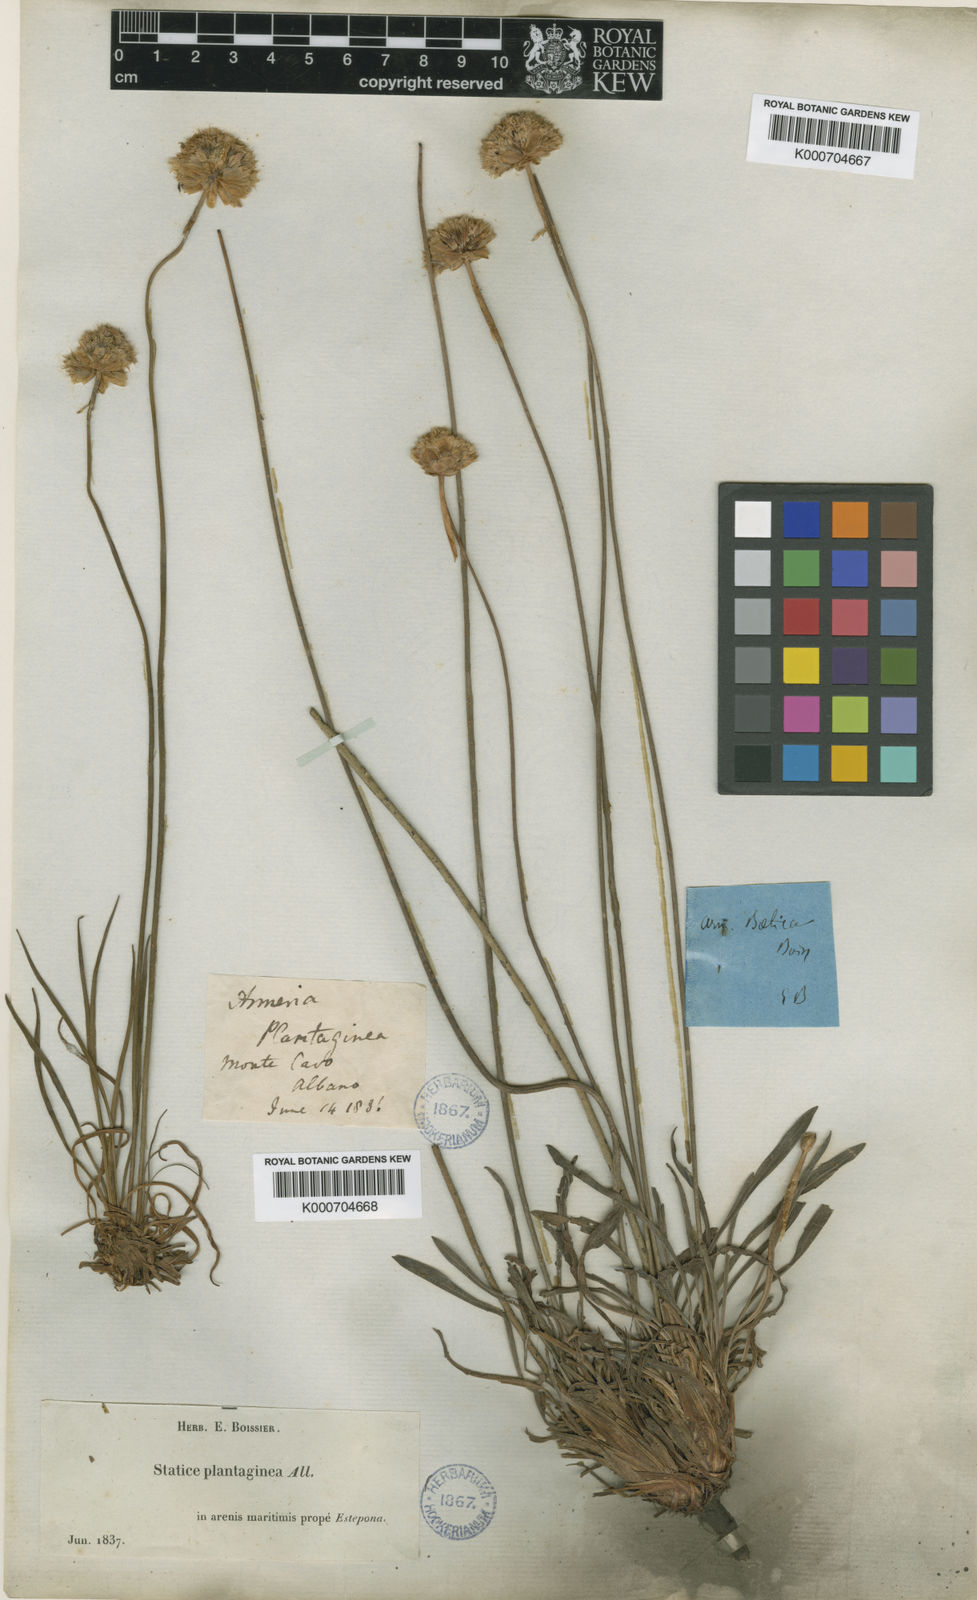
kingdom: Plantae
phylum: Tracheophyta
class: Magnoliopsida
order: Caryophyllales
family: Plumbaginaceae
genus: Armeria
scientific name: Armeria hirta
